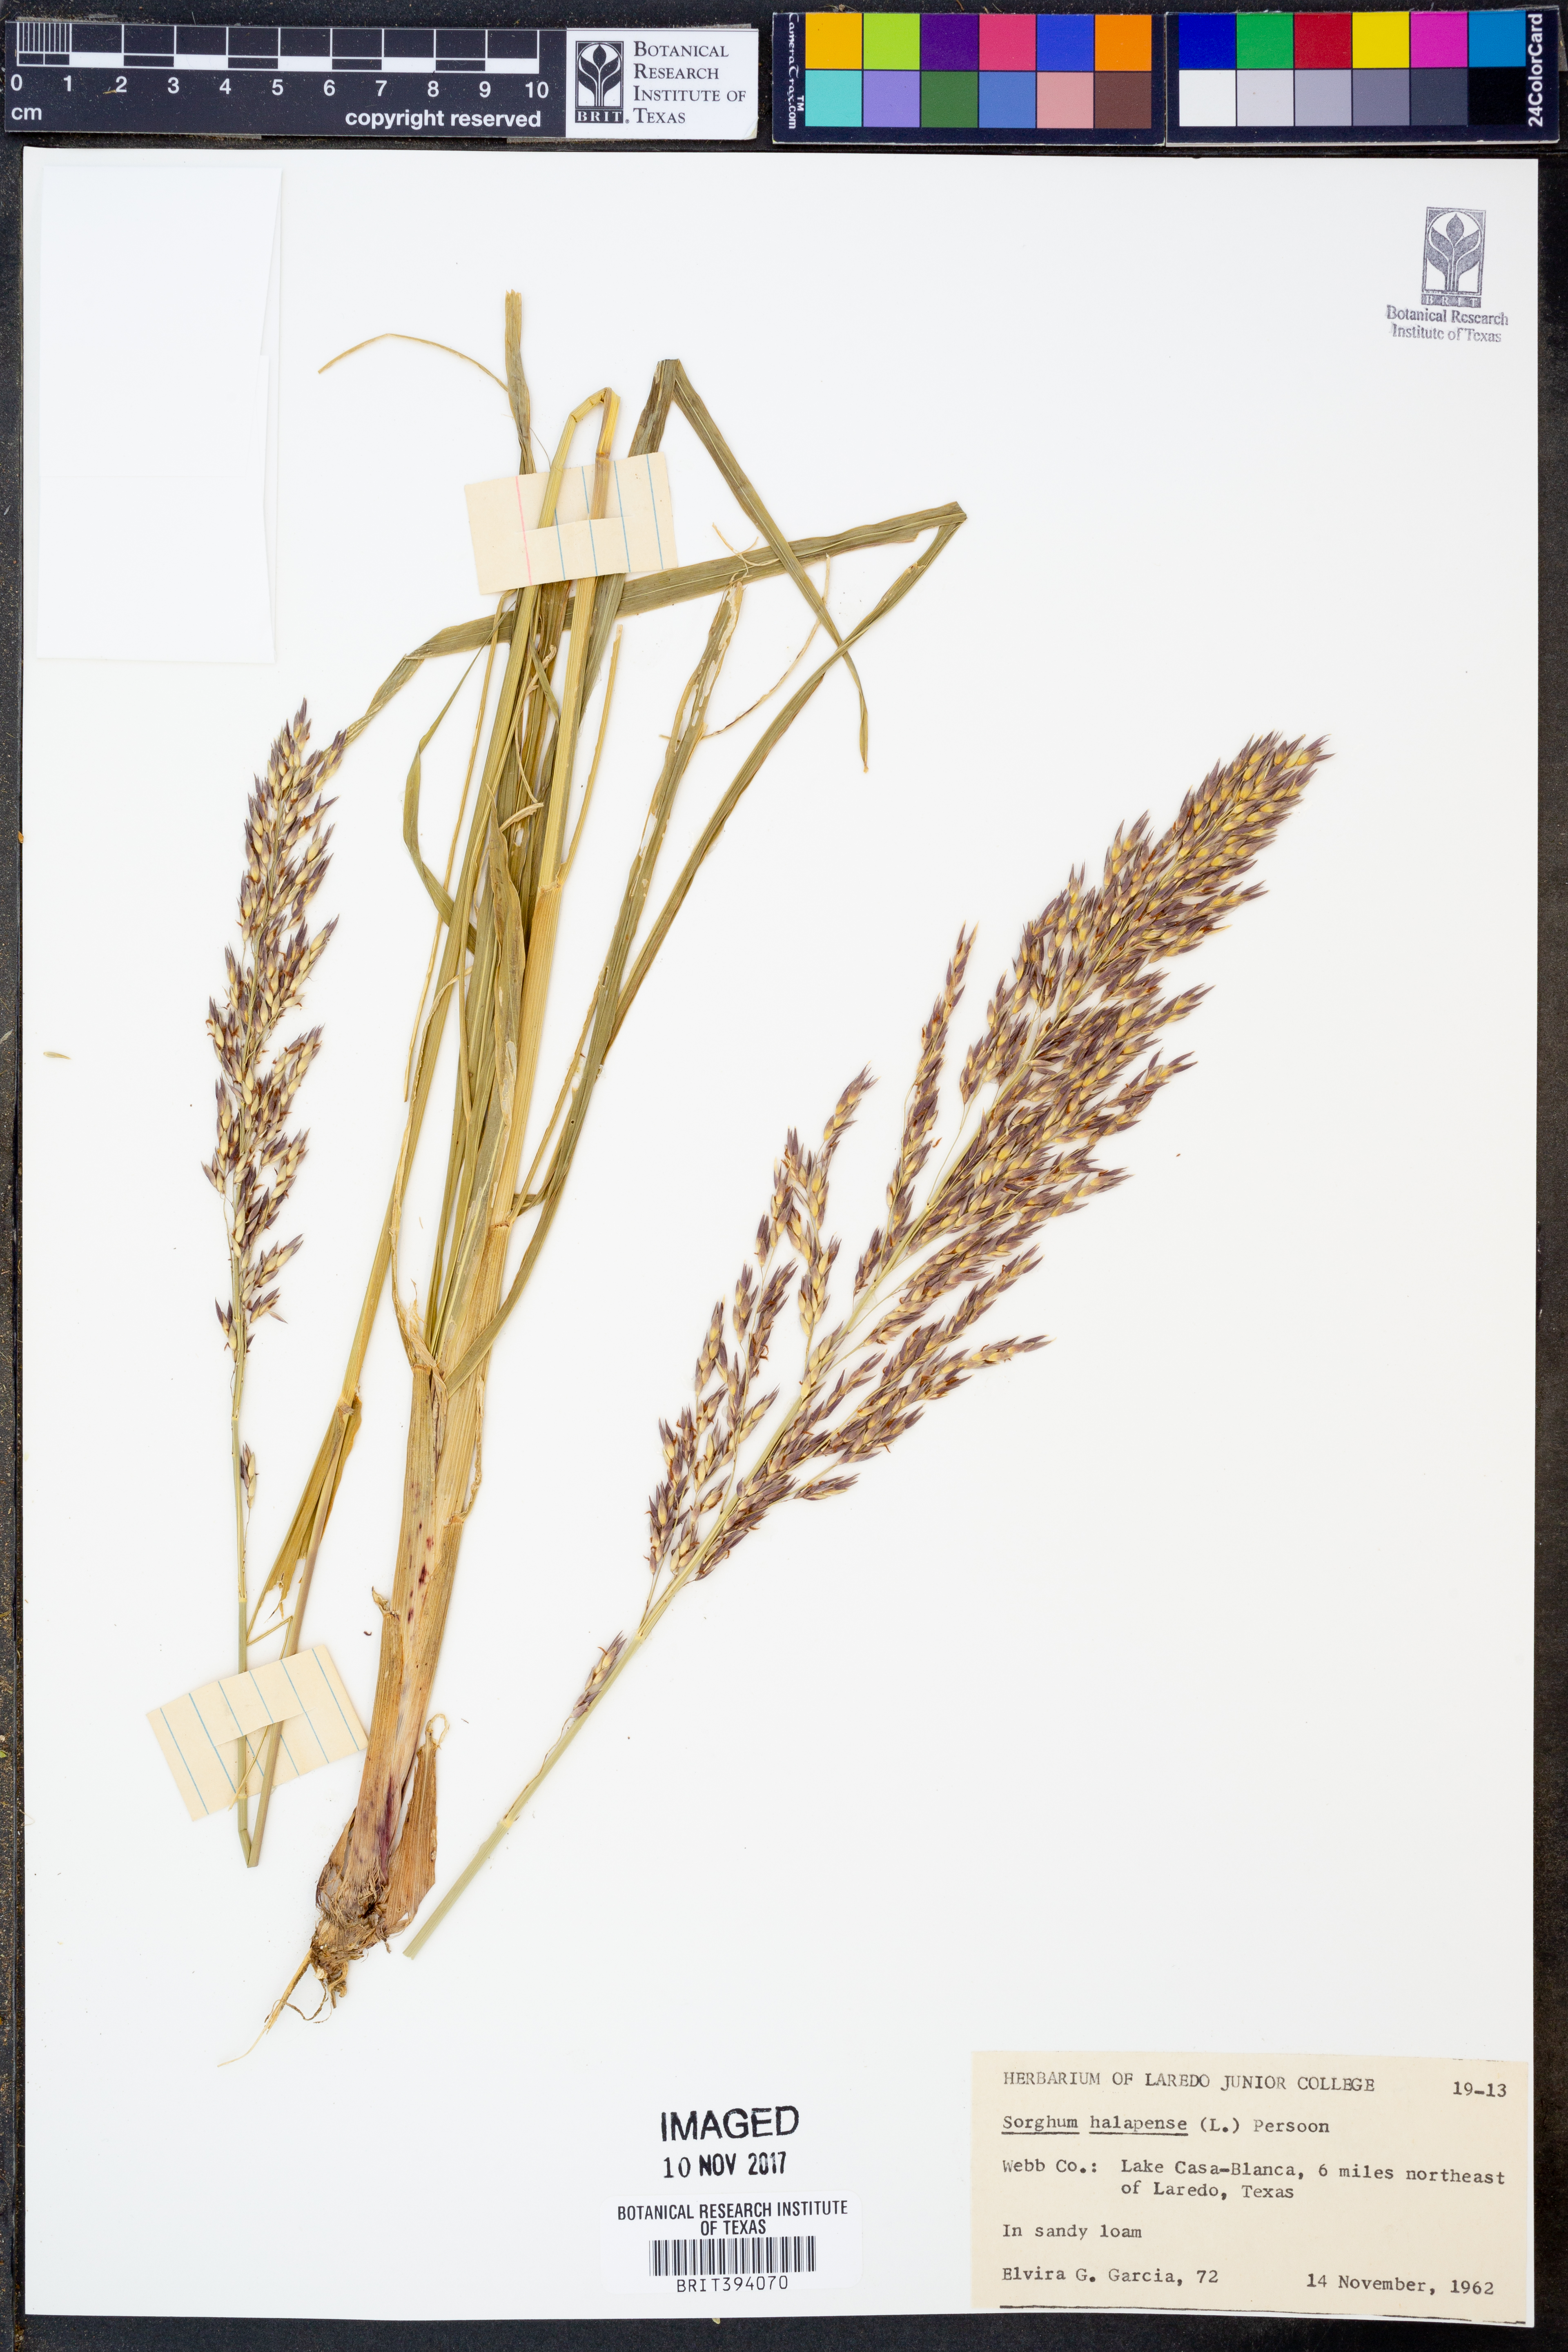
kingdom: Plantae
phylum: Tracheophyta
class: Liliopsida
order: Poales
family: Poaceae
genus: Sorghum
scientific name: Sorghum halepense
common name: Johnson-grass
